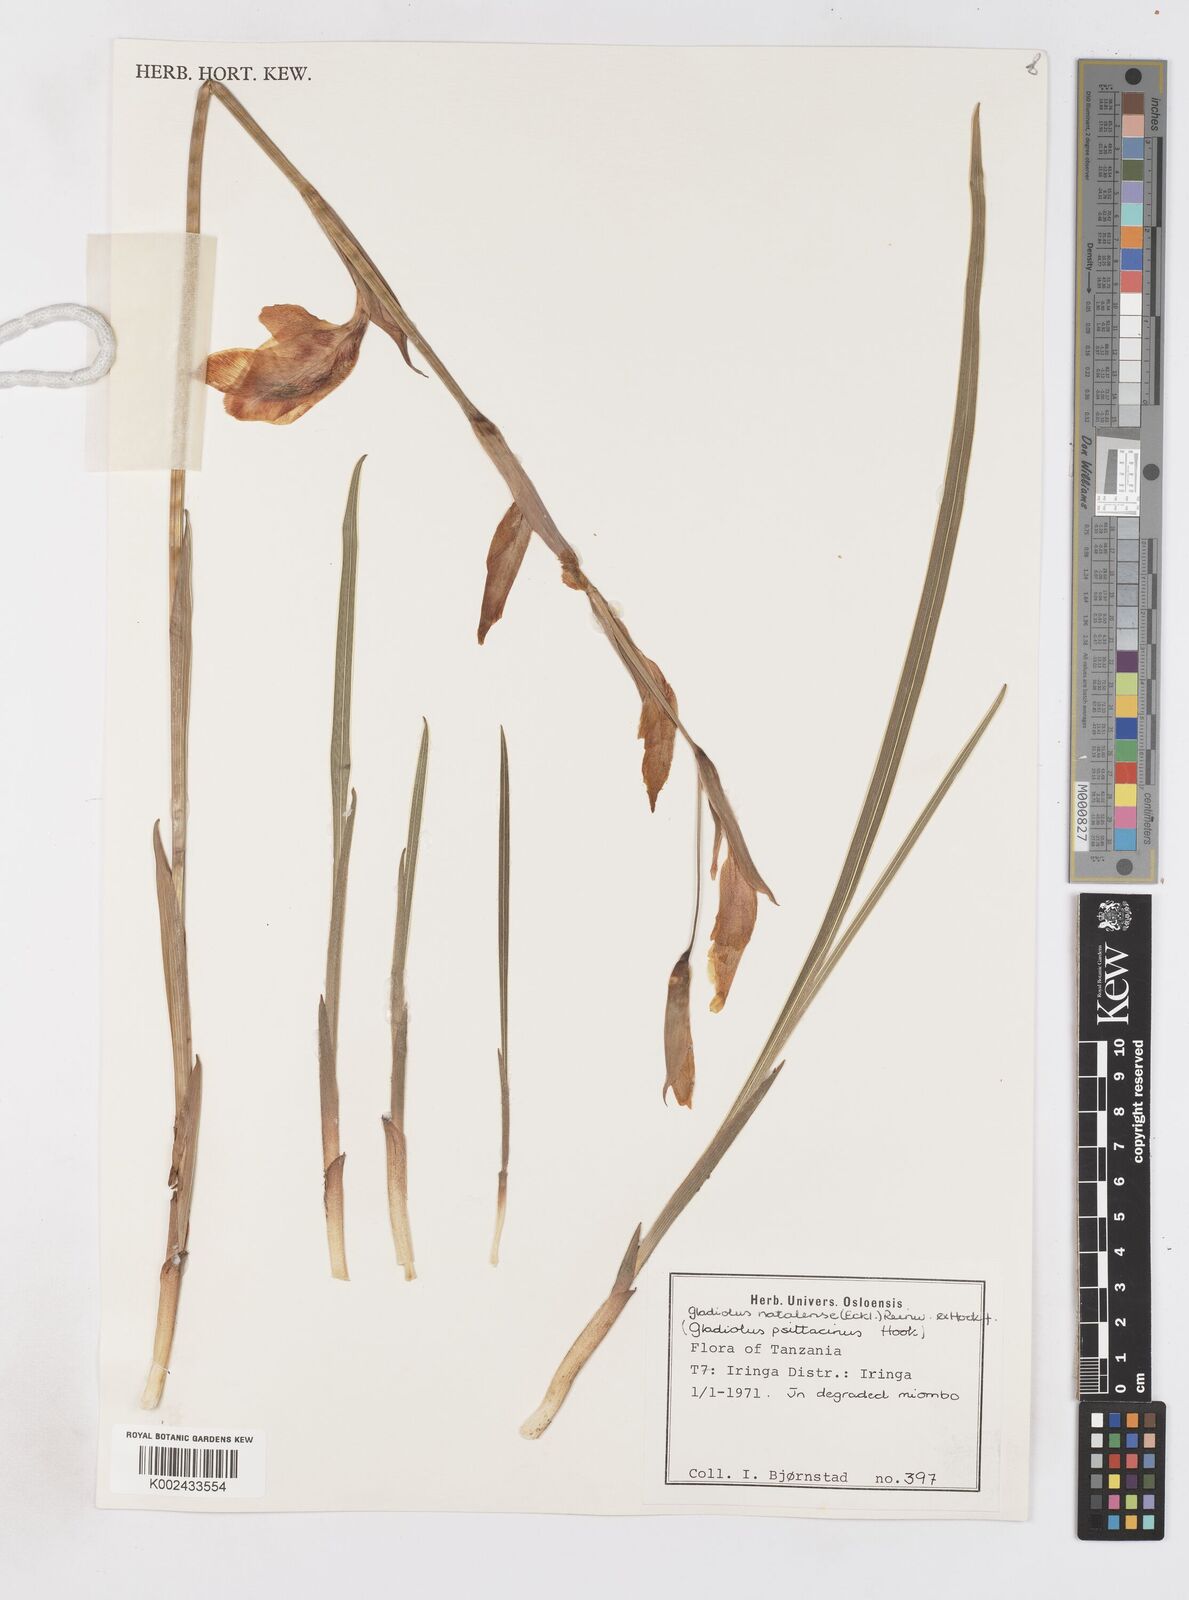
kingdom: Plantae
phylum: Tracheophyta
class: Liliopsida
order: Asparagales
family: Iridaceae
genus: Gladiolus
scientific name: Gladiolus dalenii
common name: Cornflag
